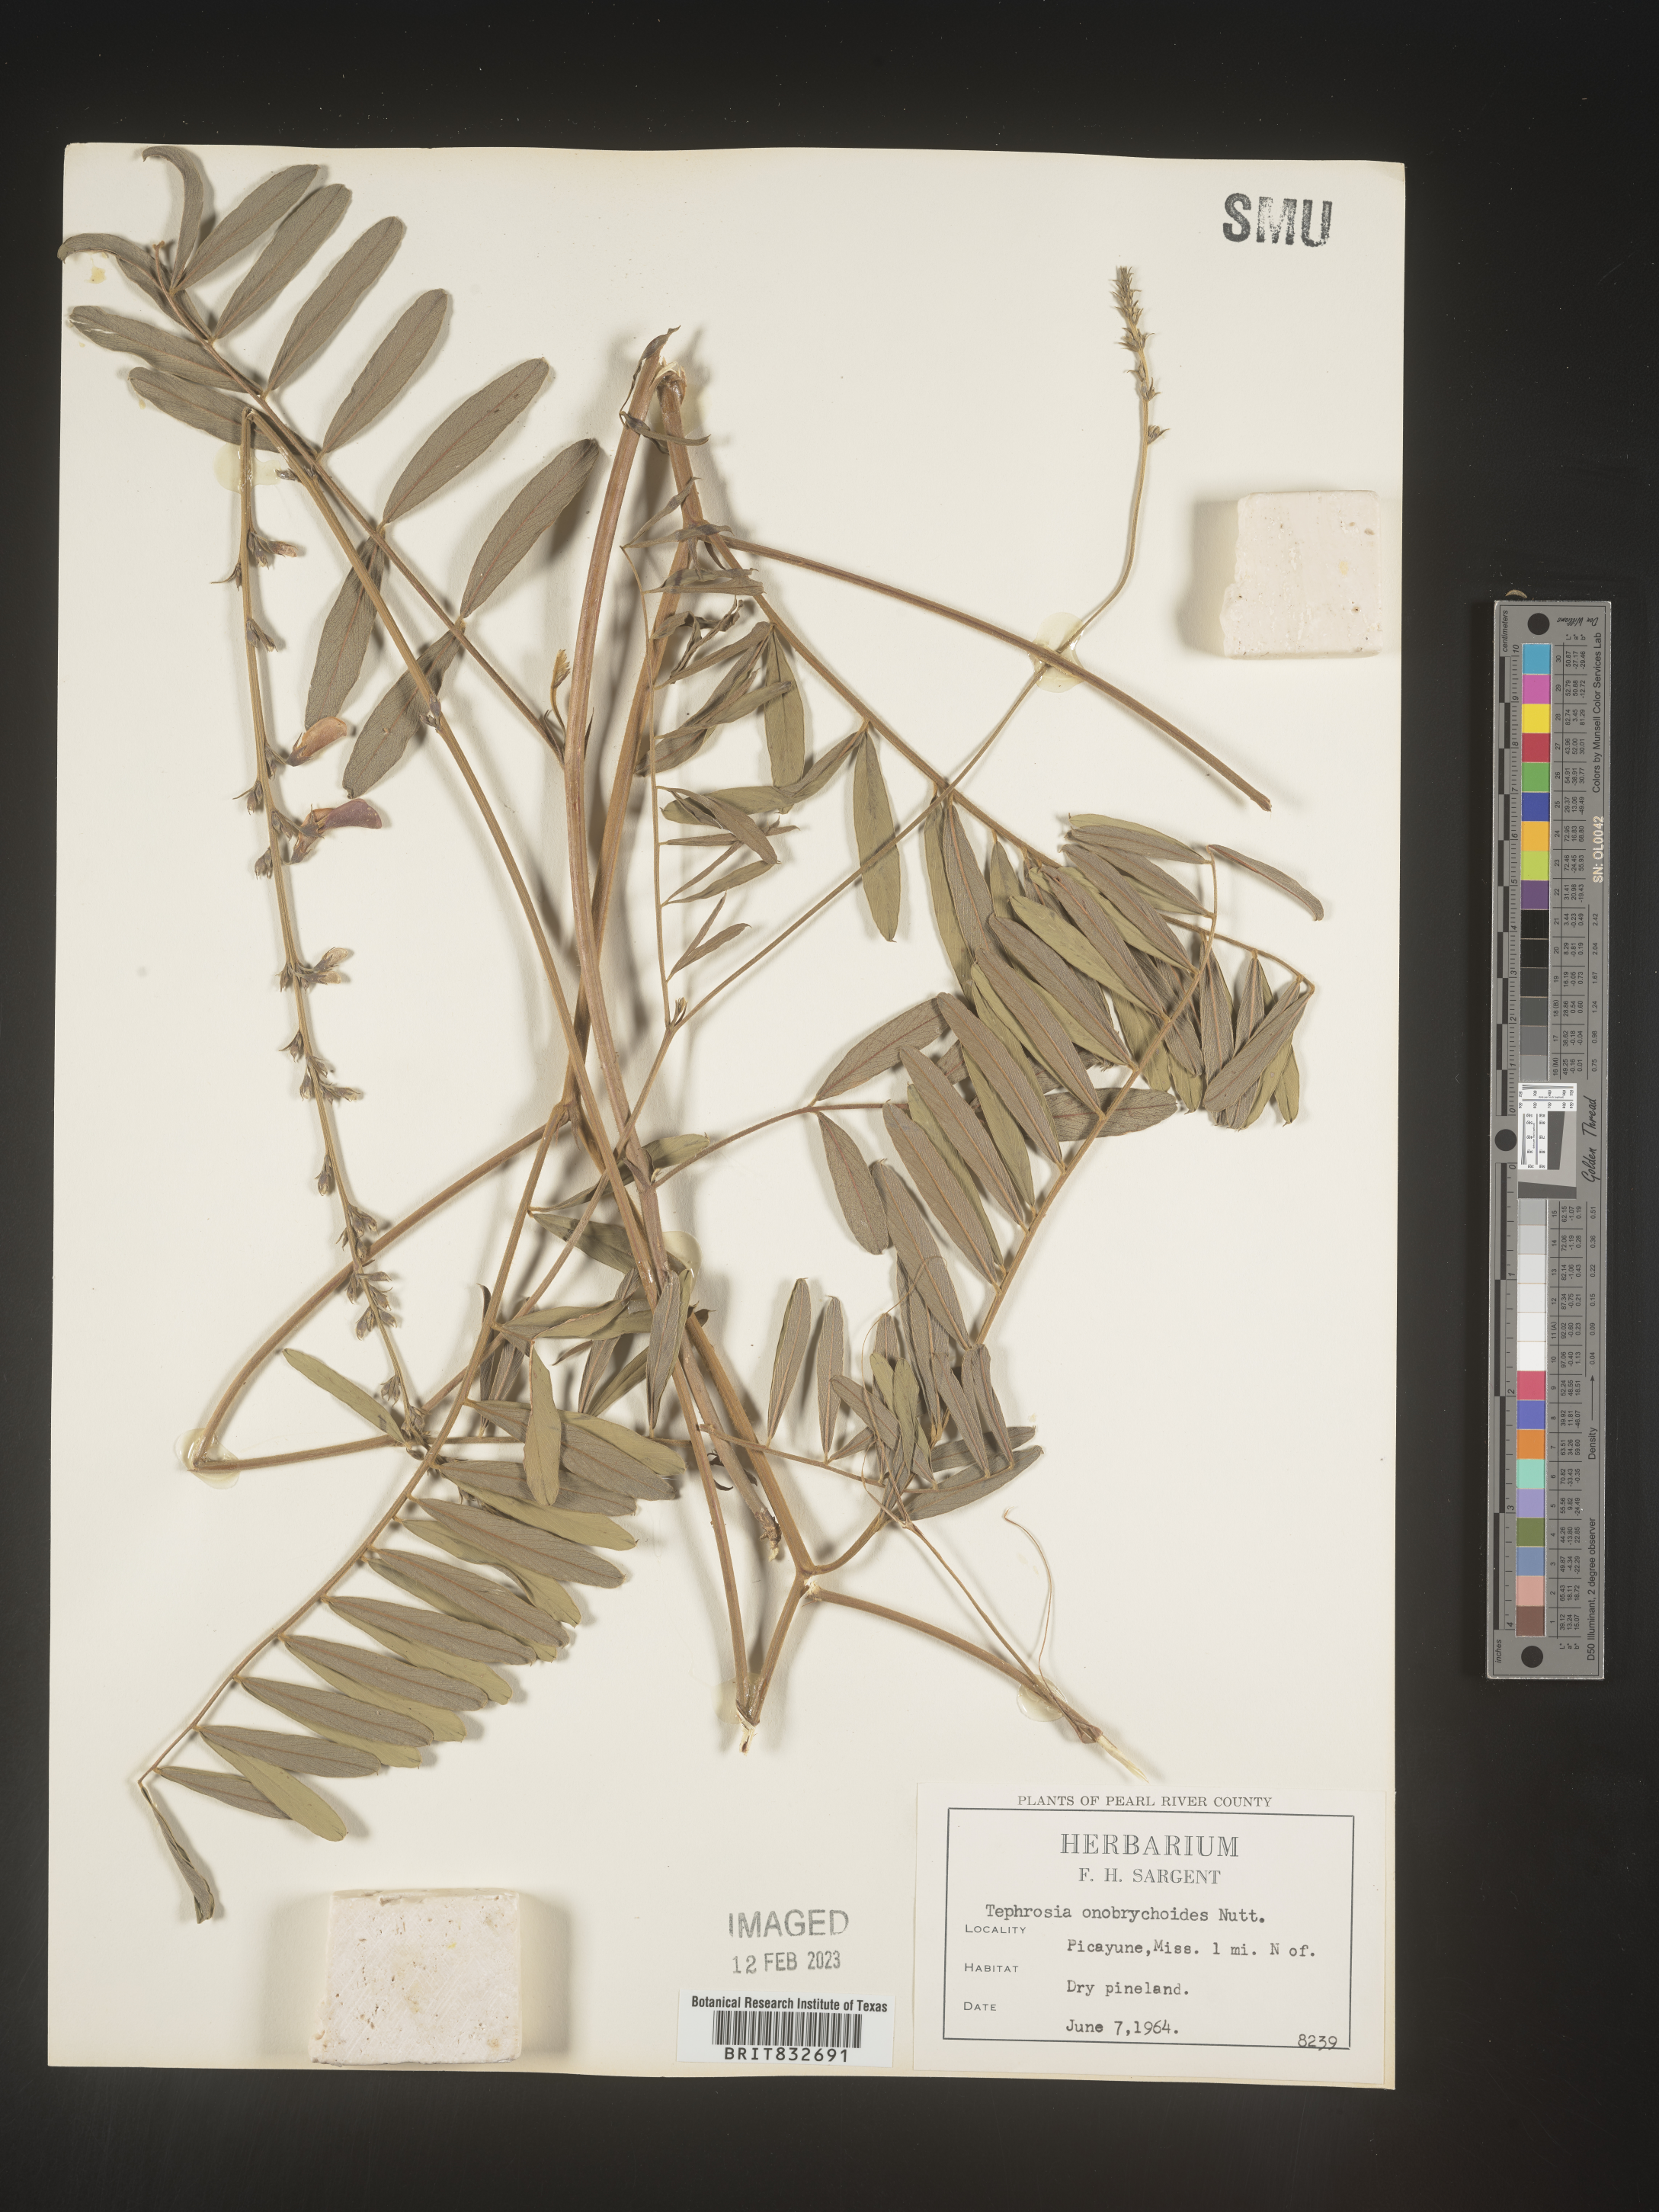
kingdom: Plantae
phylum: Tracheophyta
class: Magnoliopsida
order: Fabales
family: Fabaceae
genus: Tephrosia
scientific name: Tephrosia onobrychoides
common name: Multi-bloom hoary-pea
